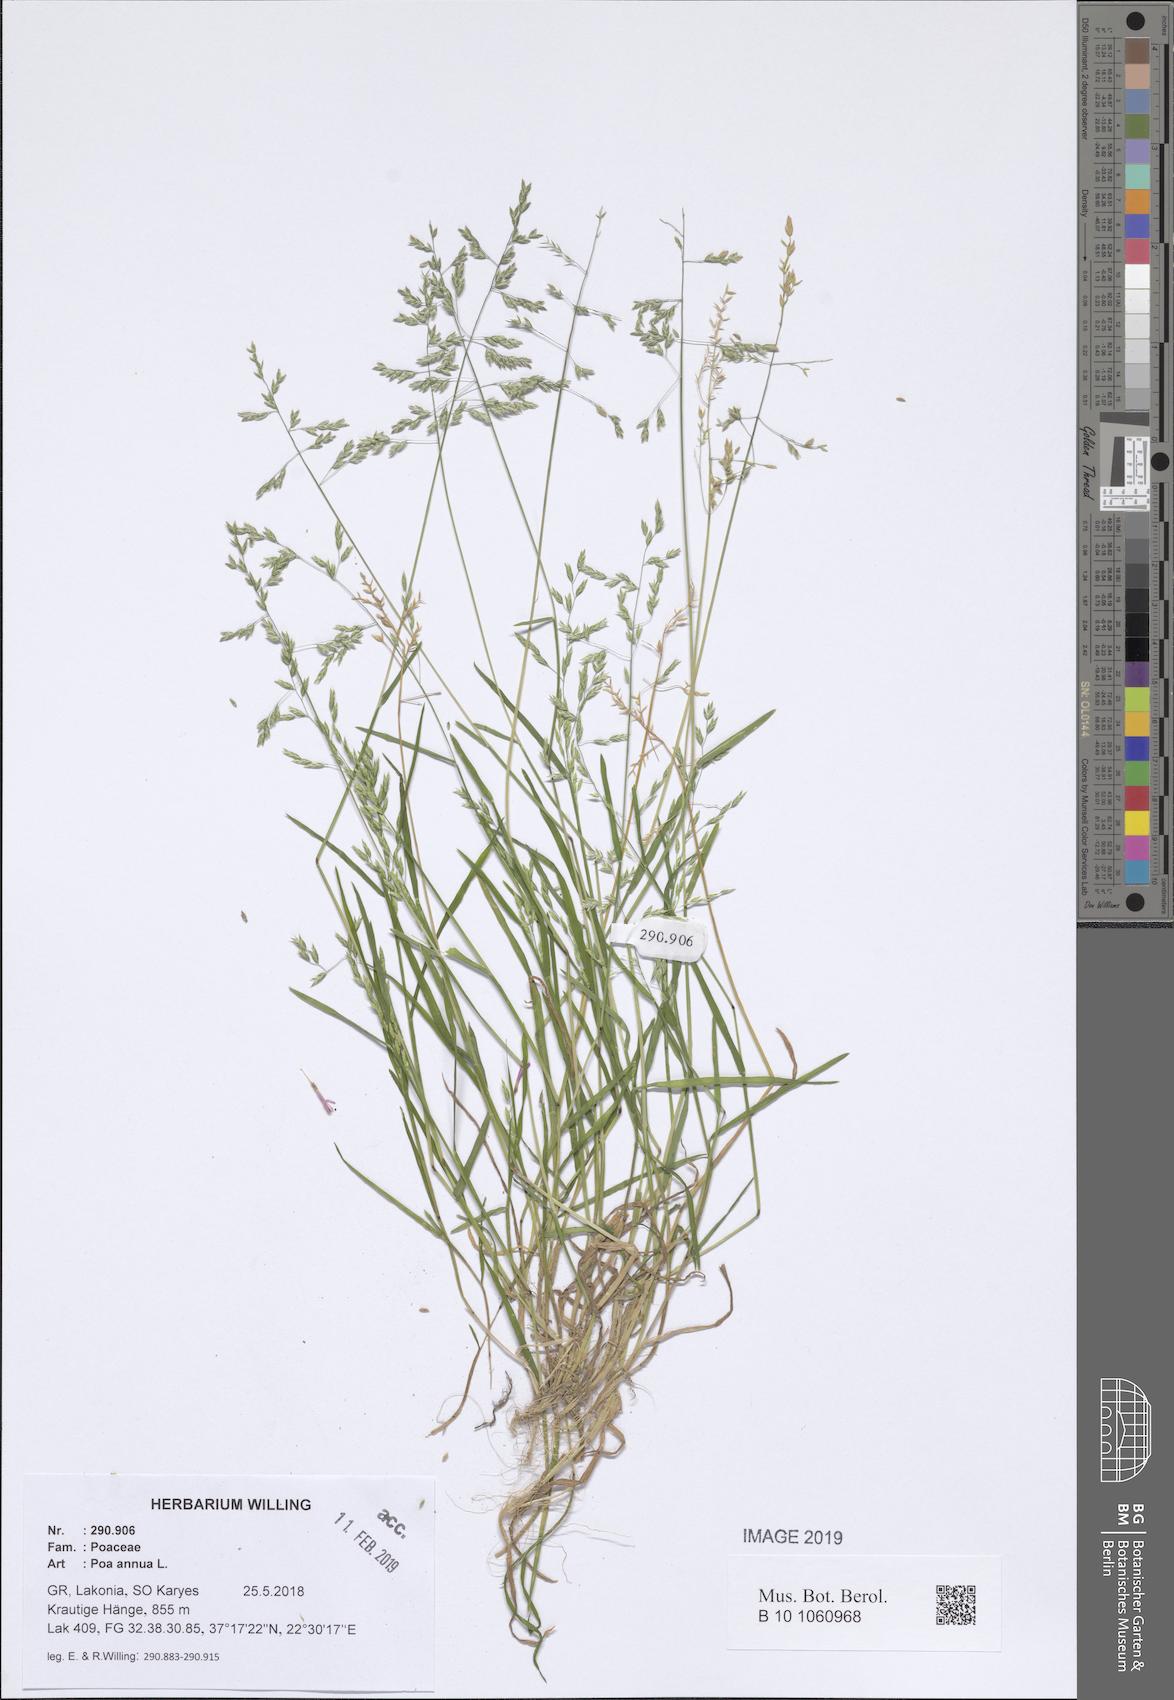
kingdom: Plantae
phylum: Tracheophyta
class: Liliopsida
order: Poales
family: Poaceae
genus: Poa
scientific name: Poa annua
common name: Annual bluegrass
